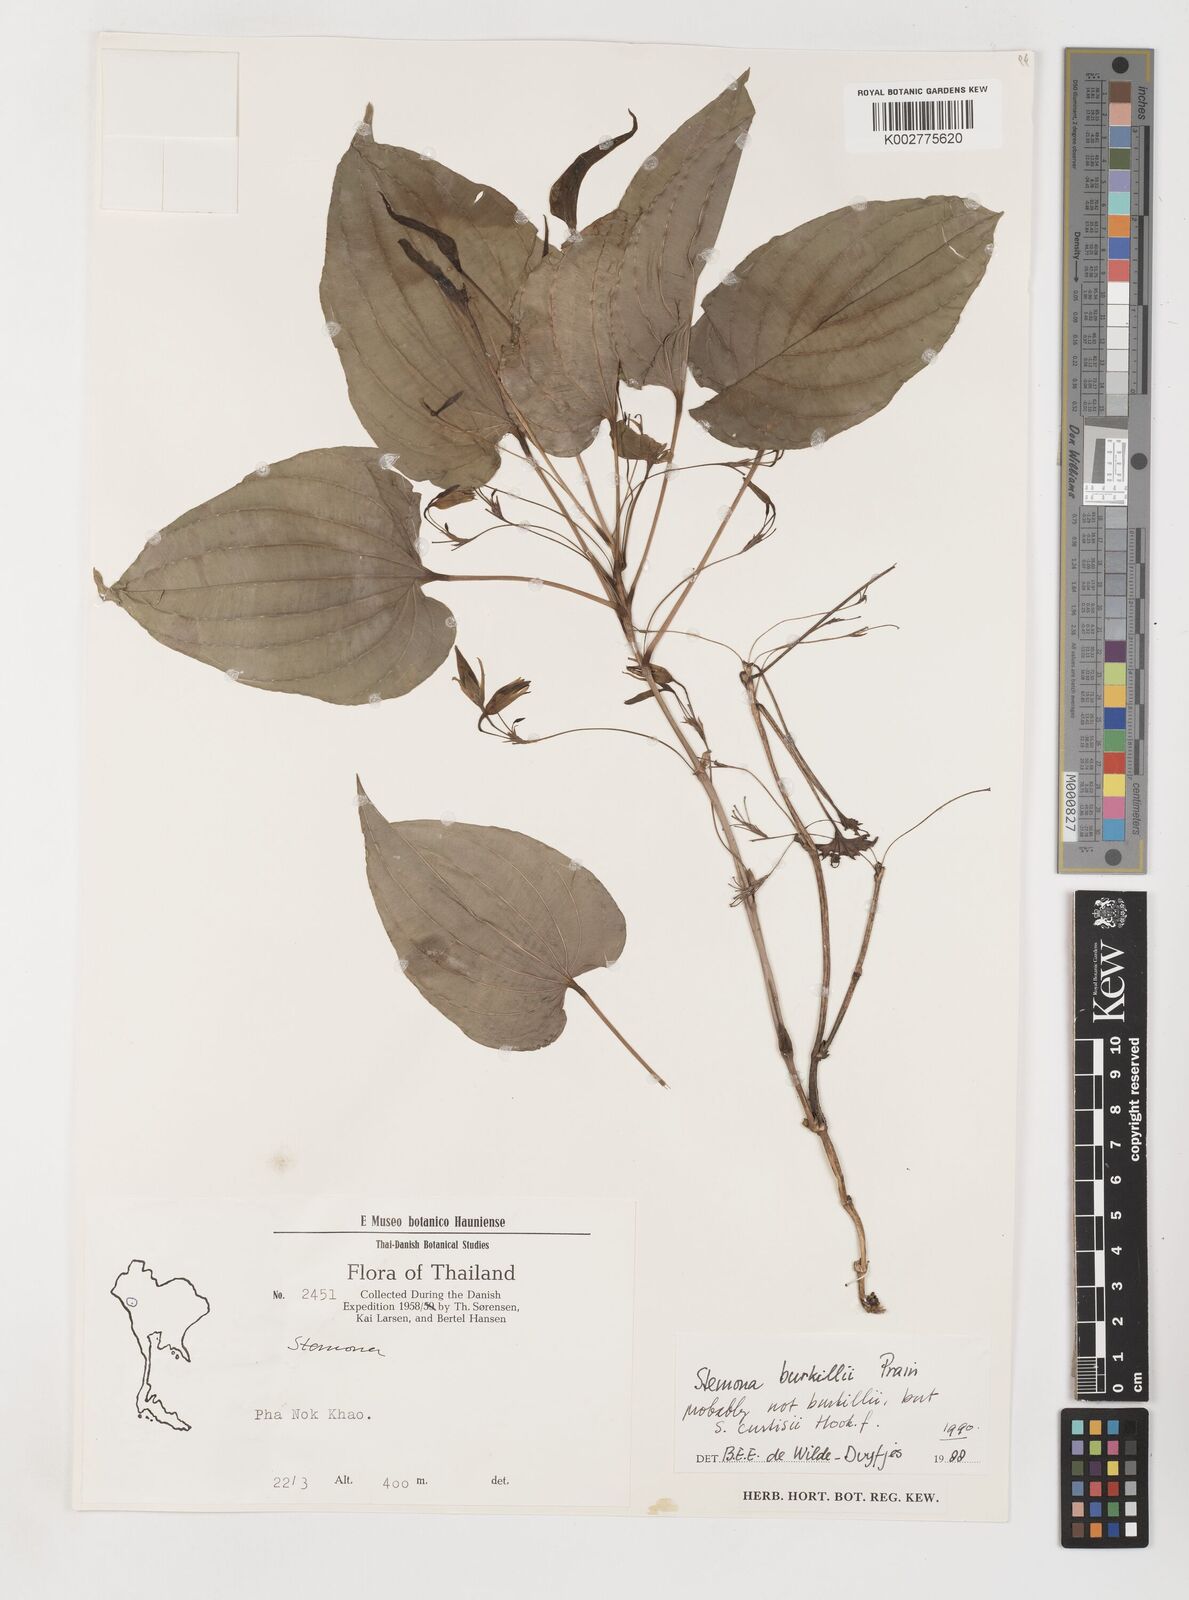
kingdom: Plantae
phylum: Tracheophyta
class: Liliopsida
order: Pandanales
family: Stemonaceae
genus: Stemona
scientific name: Stemona burkillii
